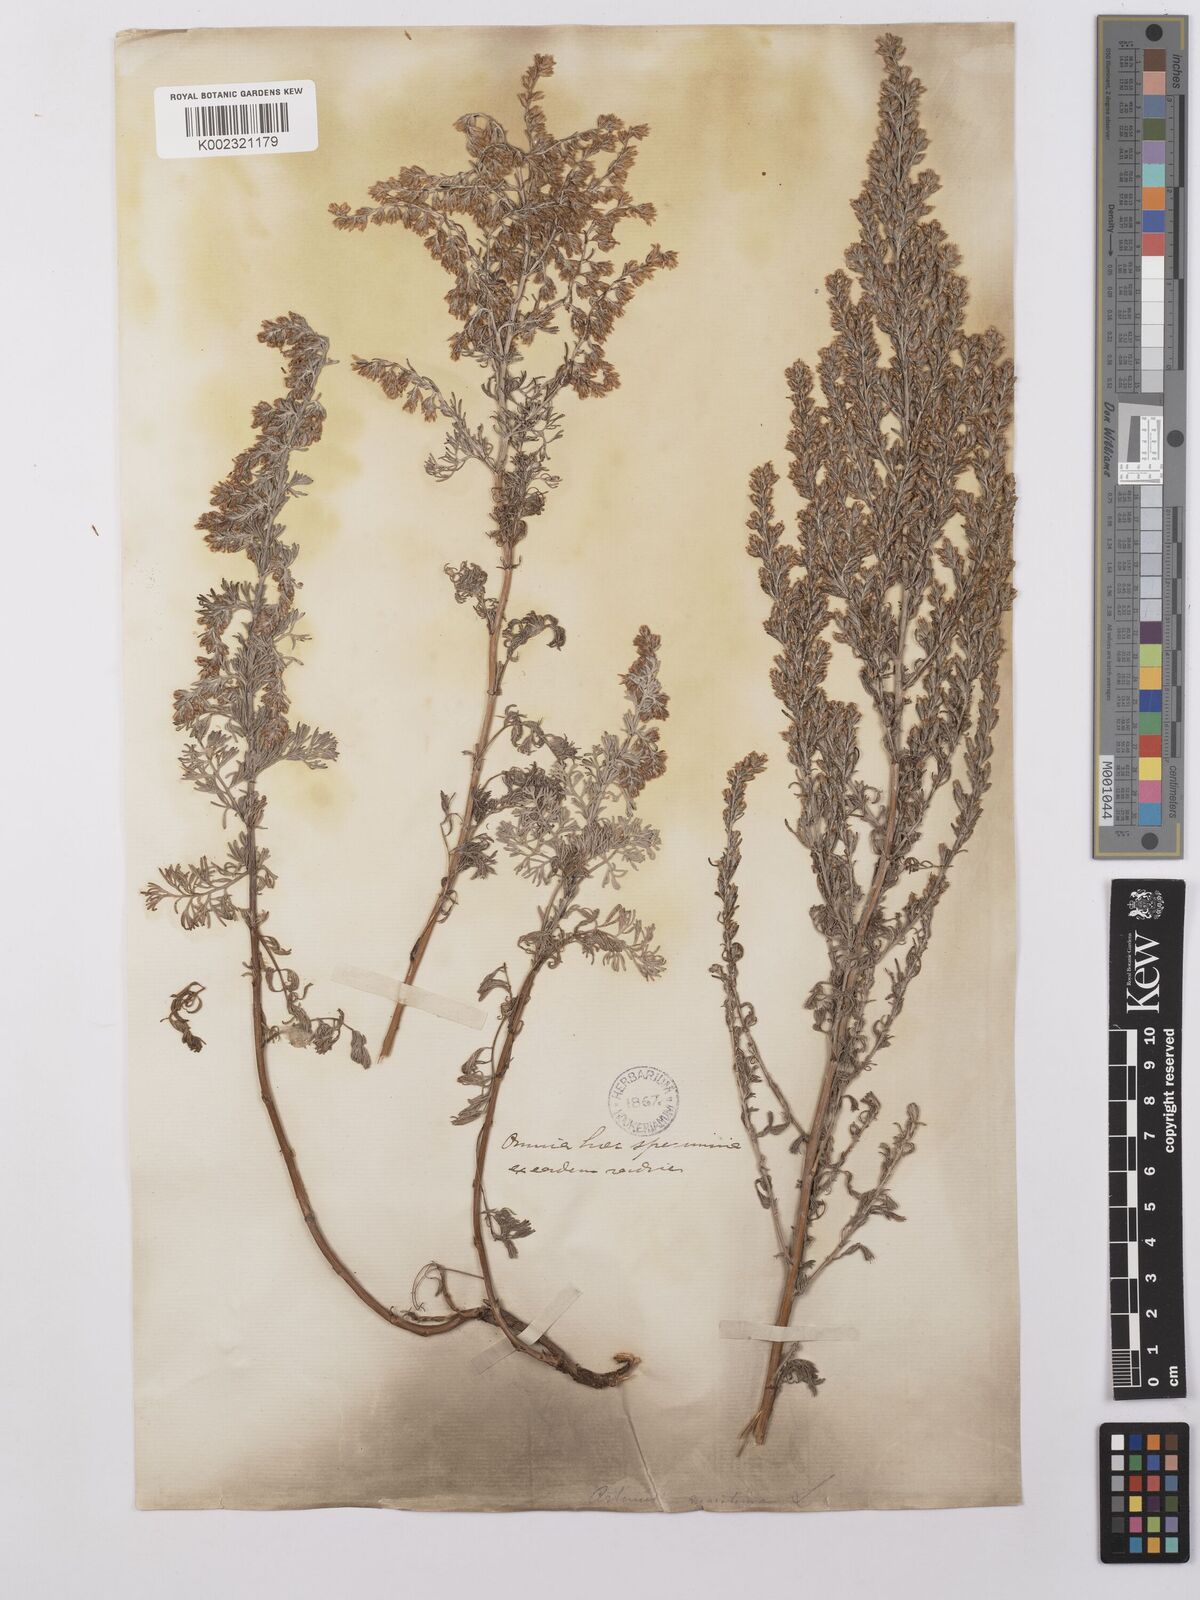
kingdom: Plantae
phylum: Tracheophyta
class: Magnoliopsida
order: Asterales
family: Asteraceae
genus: Artemisia
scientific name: Artemisia maritima
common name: Wormseed
